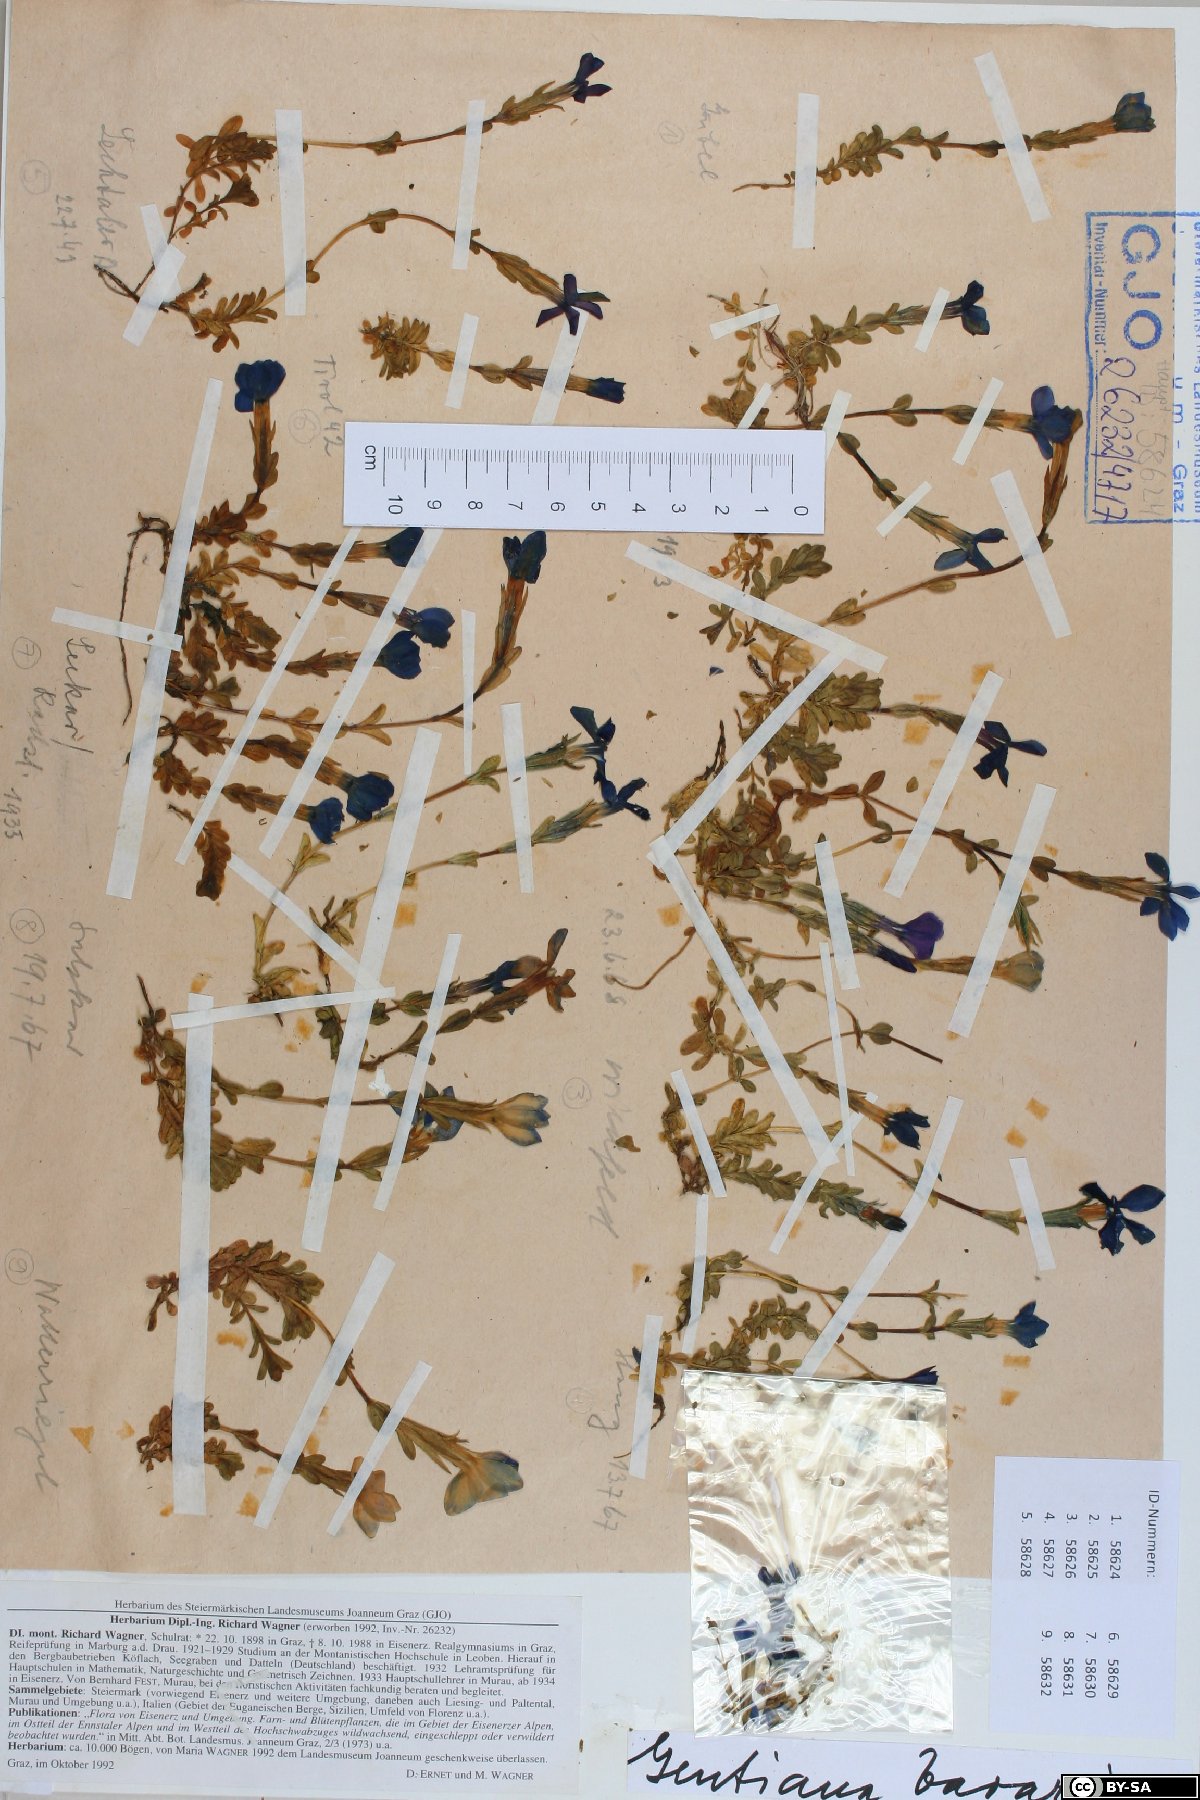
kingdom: Plantae
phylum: Tracheophyta
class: Magnoliopsida
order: Gentianales
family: Gentianaceae
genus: Gentiana
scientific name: Gentiana bavarica
